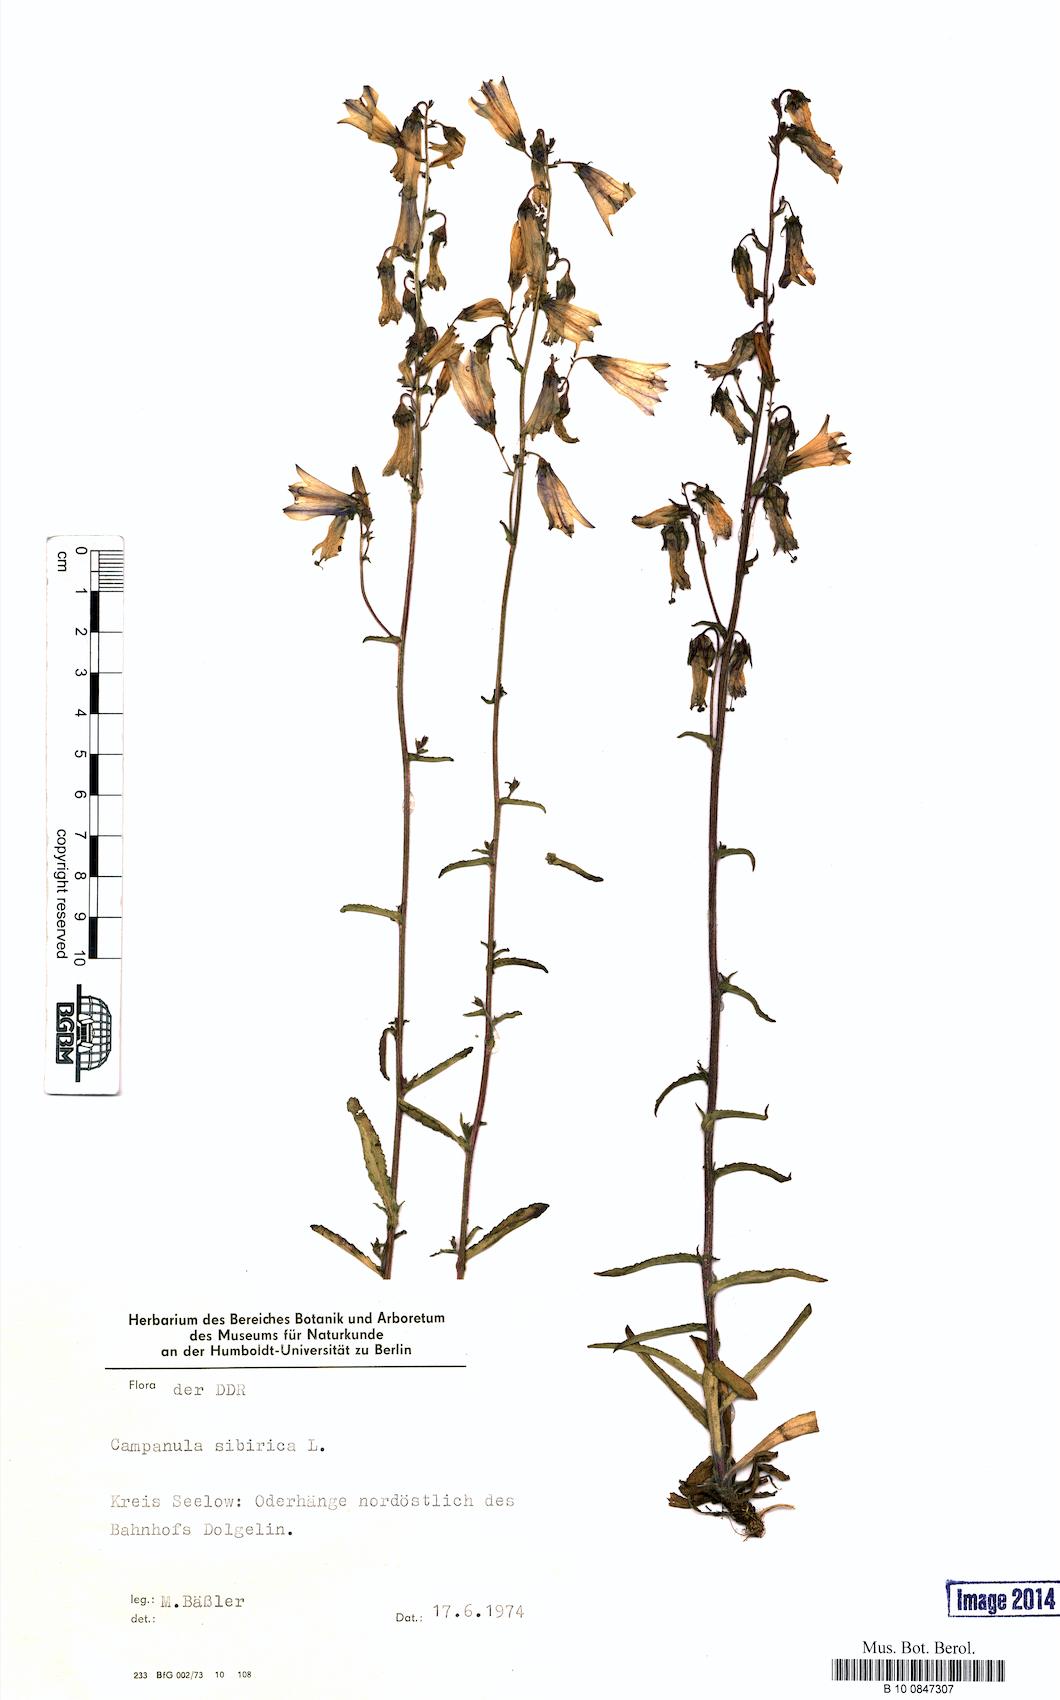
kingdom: Plantae
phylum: Tracheophyta
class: Magnoliopsida
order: Asterales
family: Campanulaceae
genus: Campanula
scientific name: Campanula sibirica
